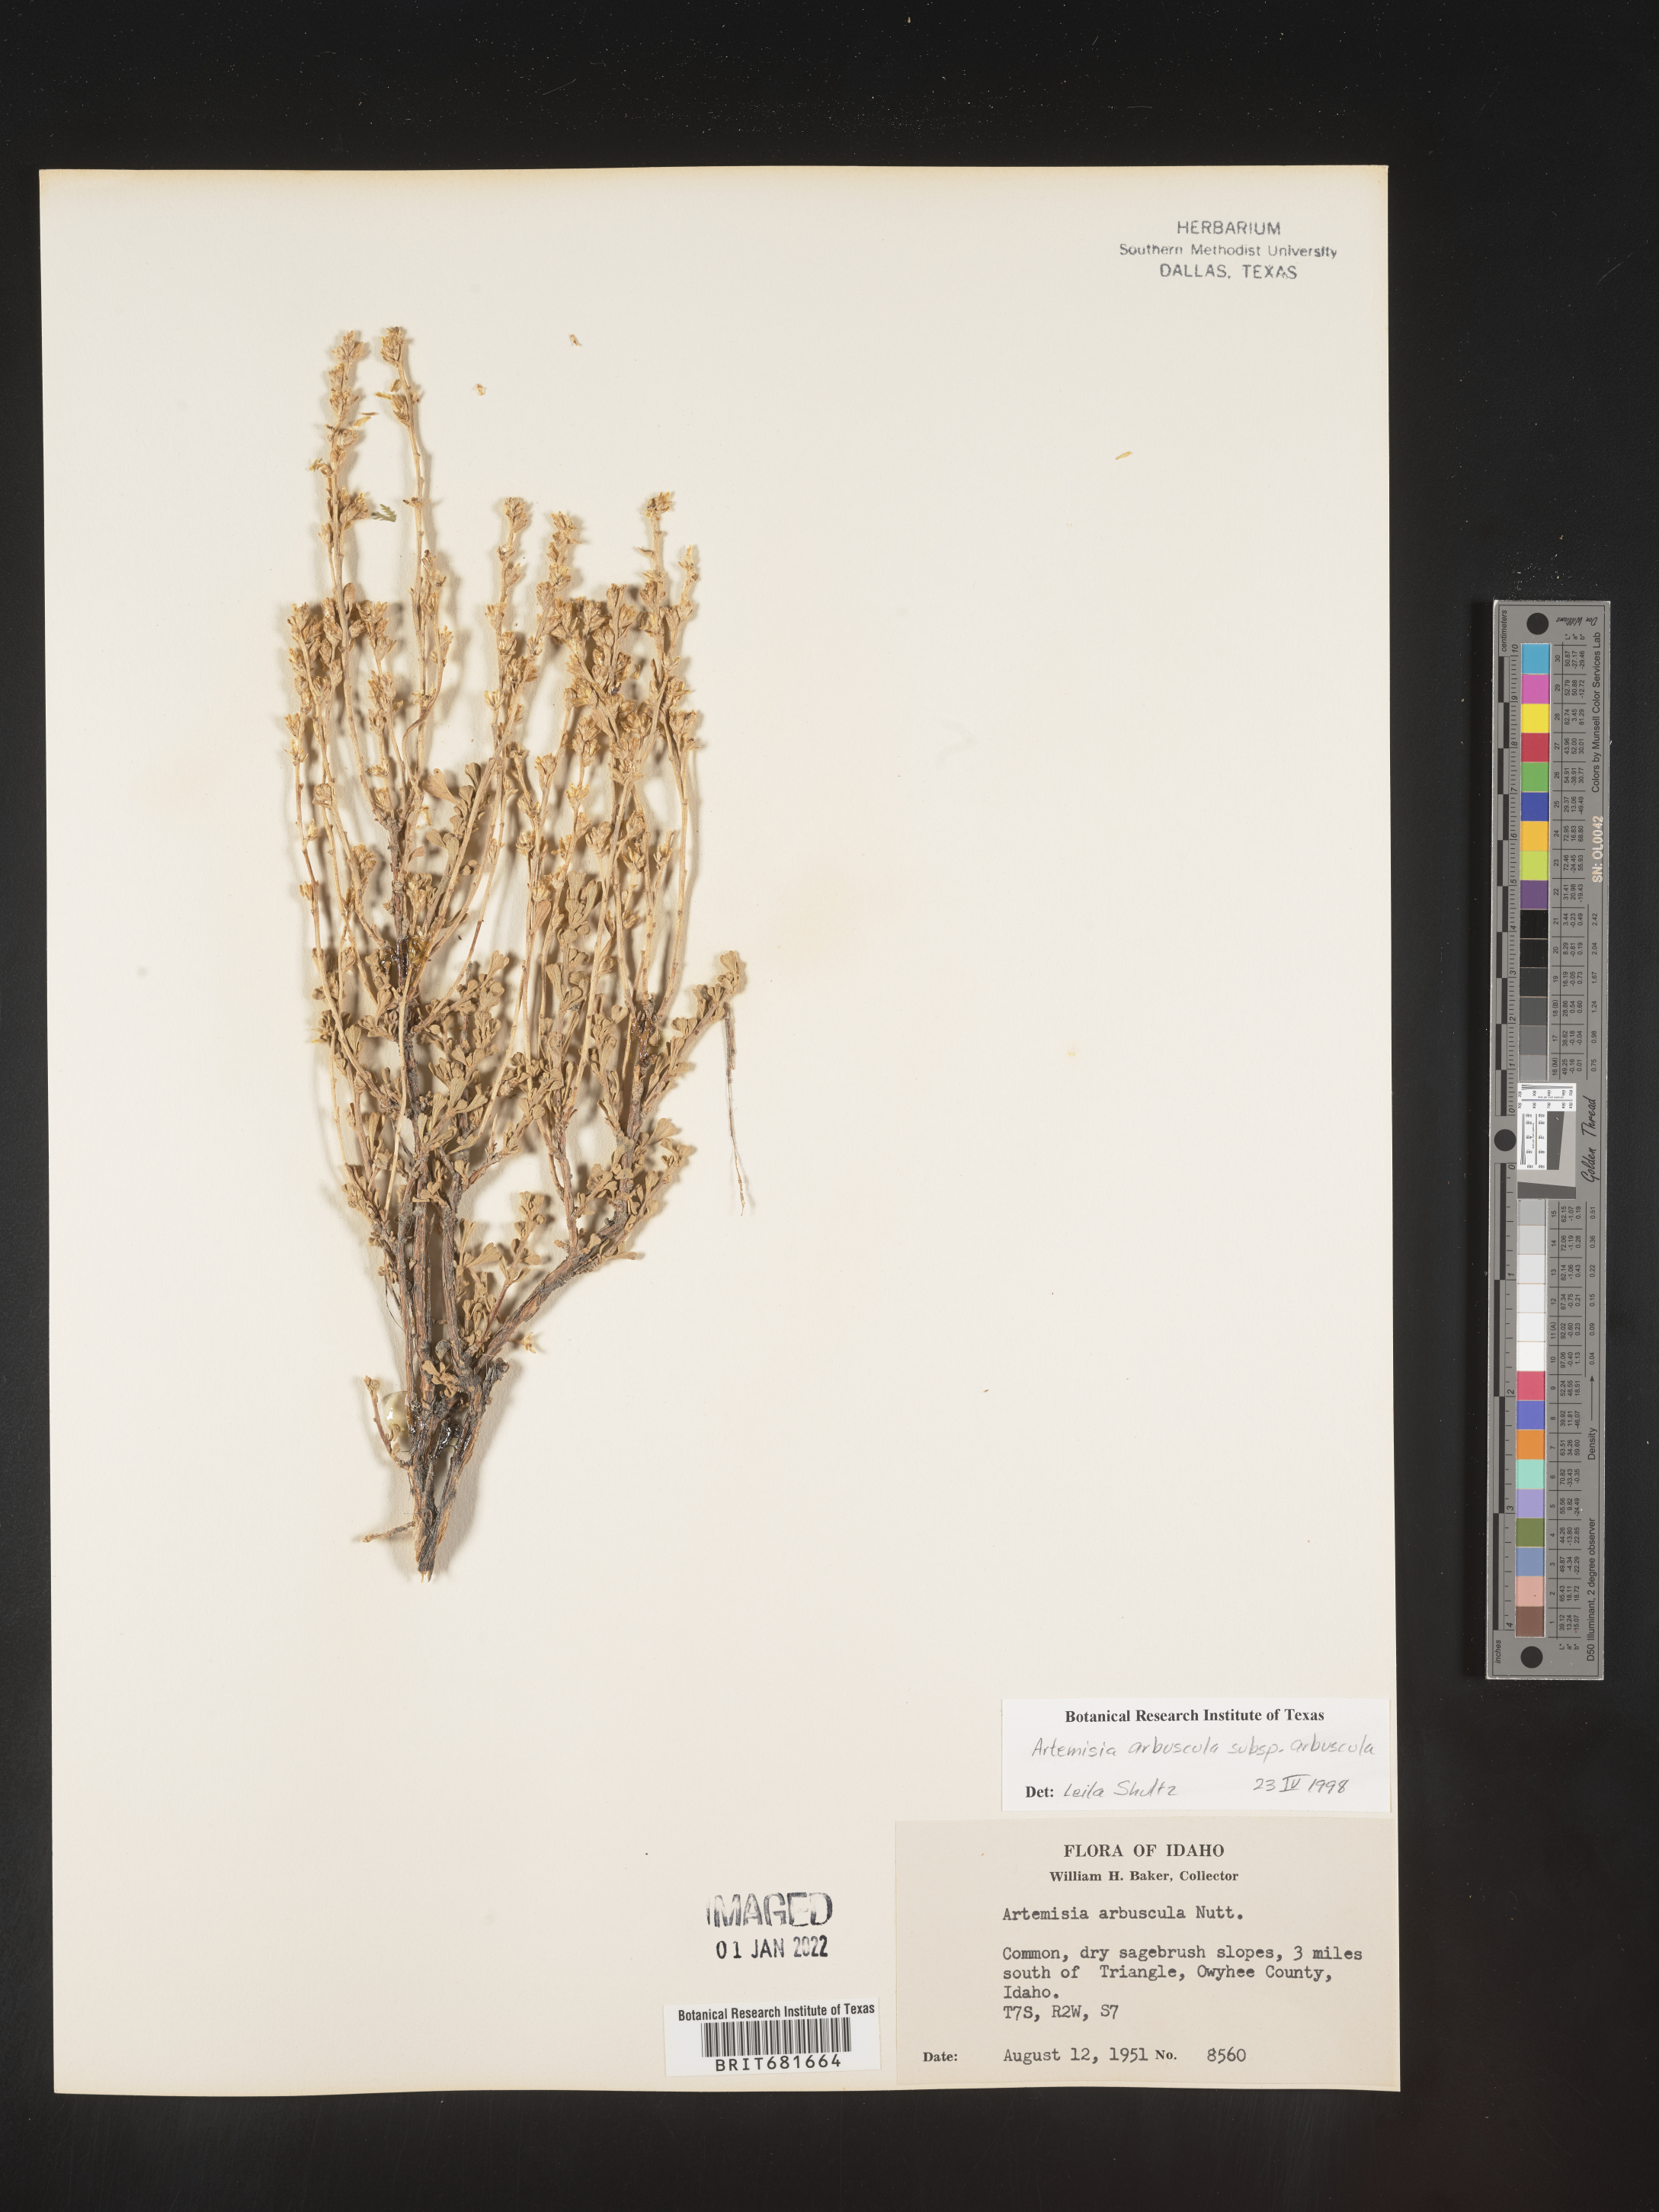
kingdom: Plantae
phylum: Tracheophyta
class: Magnoliopsida
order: Asterales
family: Asteraceae
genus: Artemisia
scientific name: Artemisia arbuscula
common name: Sagebrush
